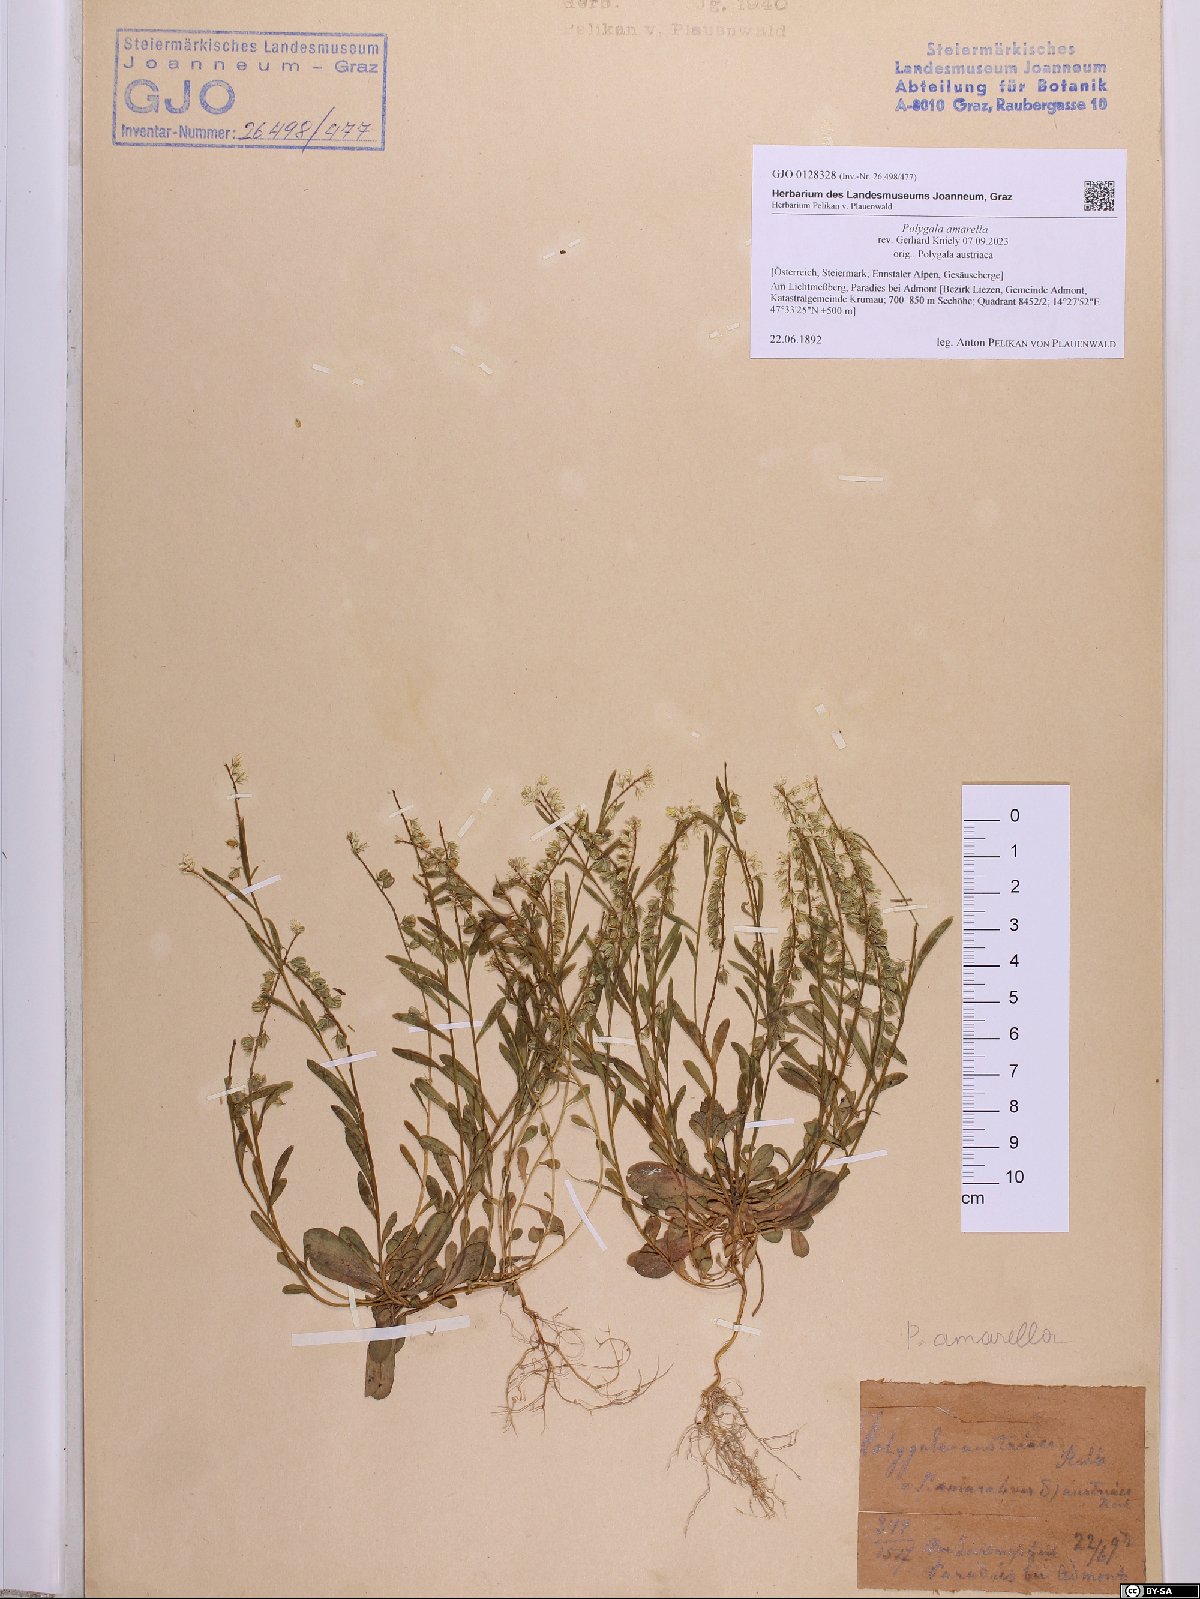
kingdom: Plantae
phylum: Tracheophyta
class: Magnoliopsida
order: Fabales
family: Polygalaceae
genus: Polygala
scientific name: Polygala amarella
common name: Dwarf milkwort
